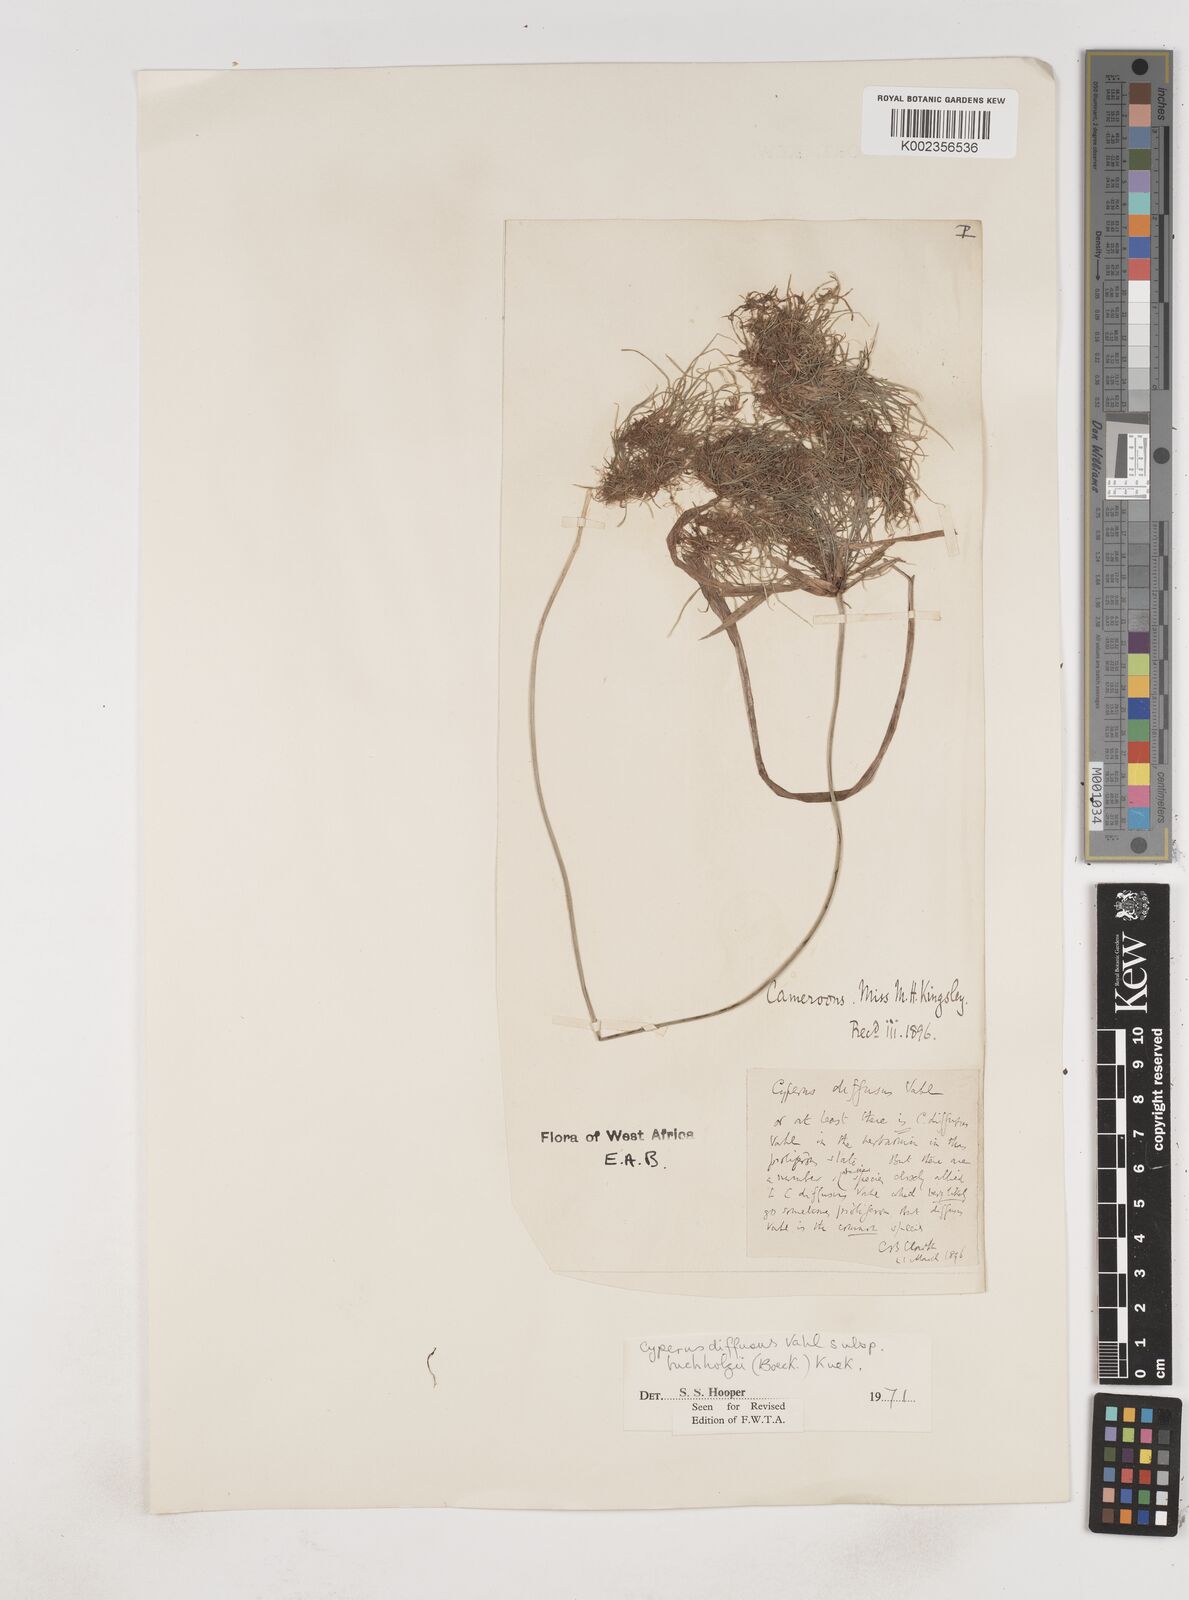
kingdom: Plantae
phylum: Tracheophyta
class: Liliopsida
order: Poales
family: Cyperaceae
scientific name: Cyperaceae
